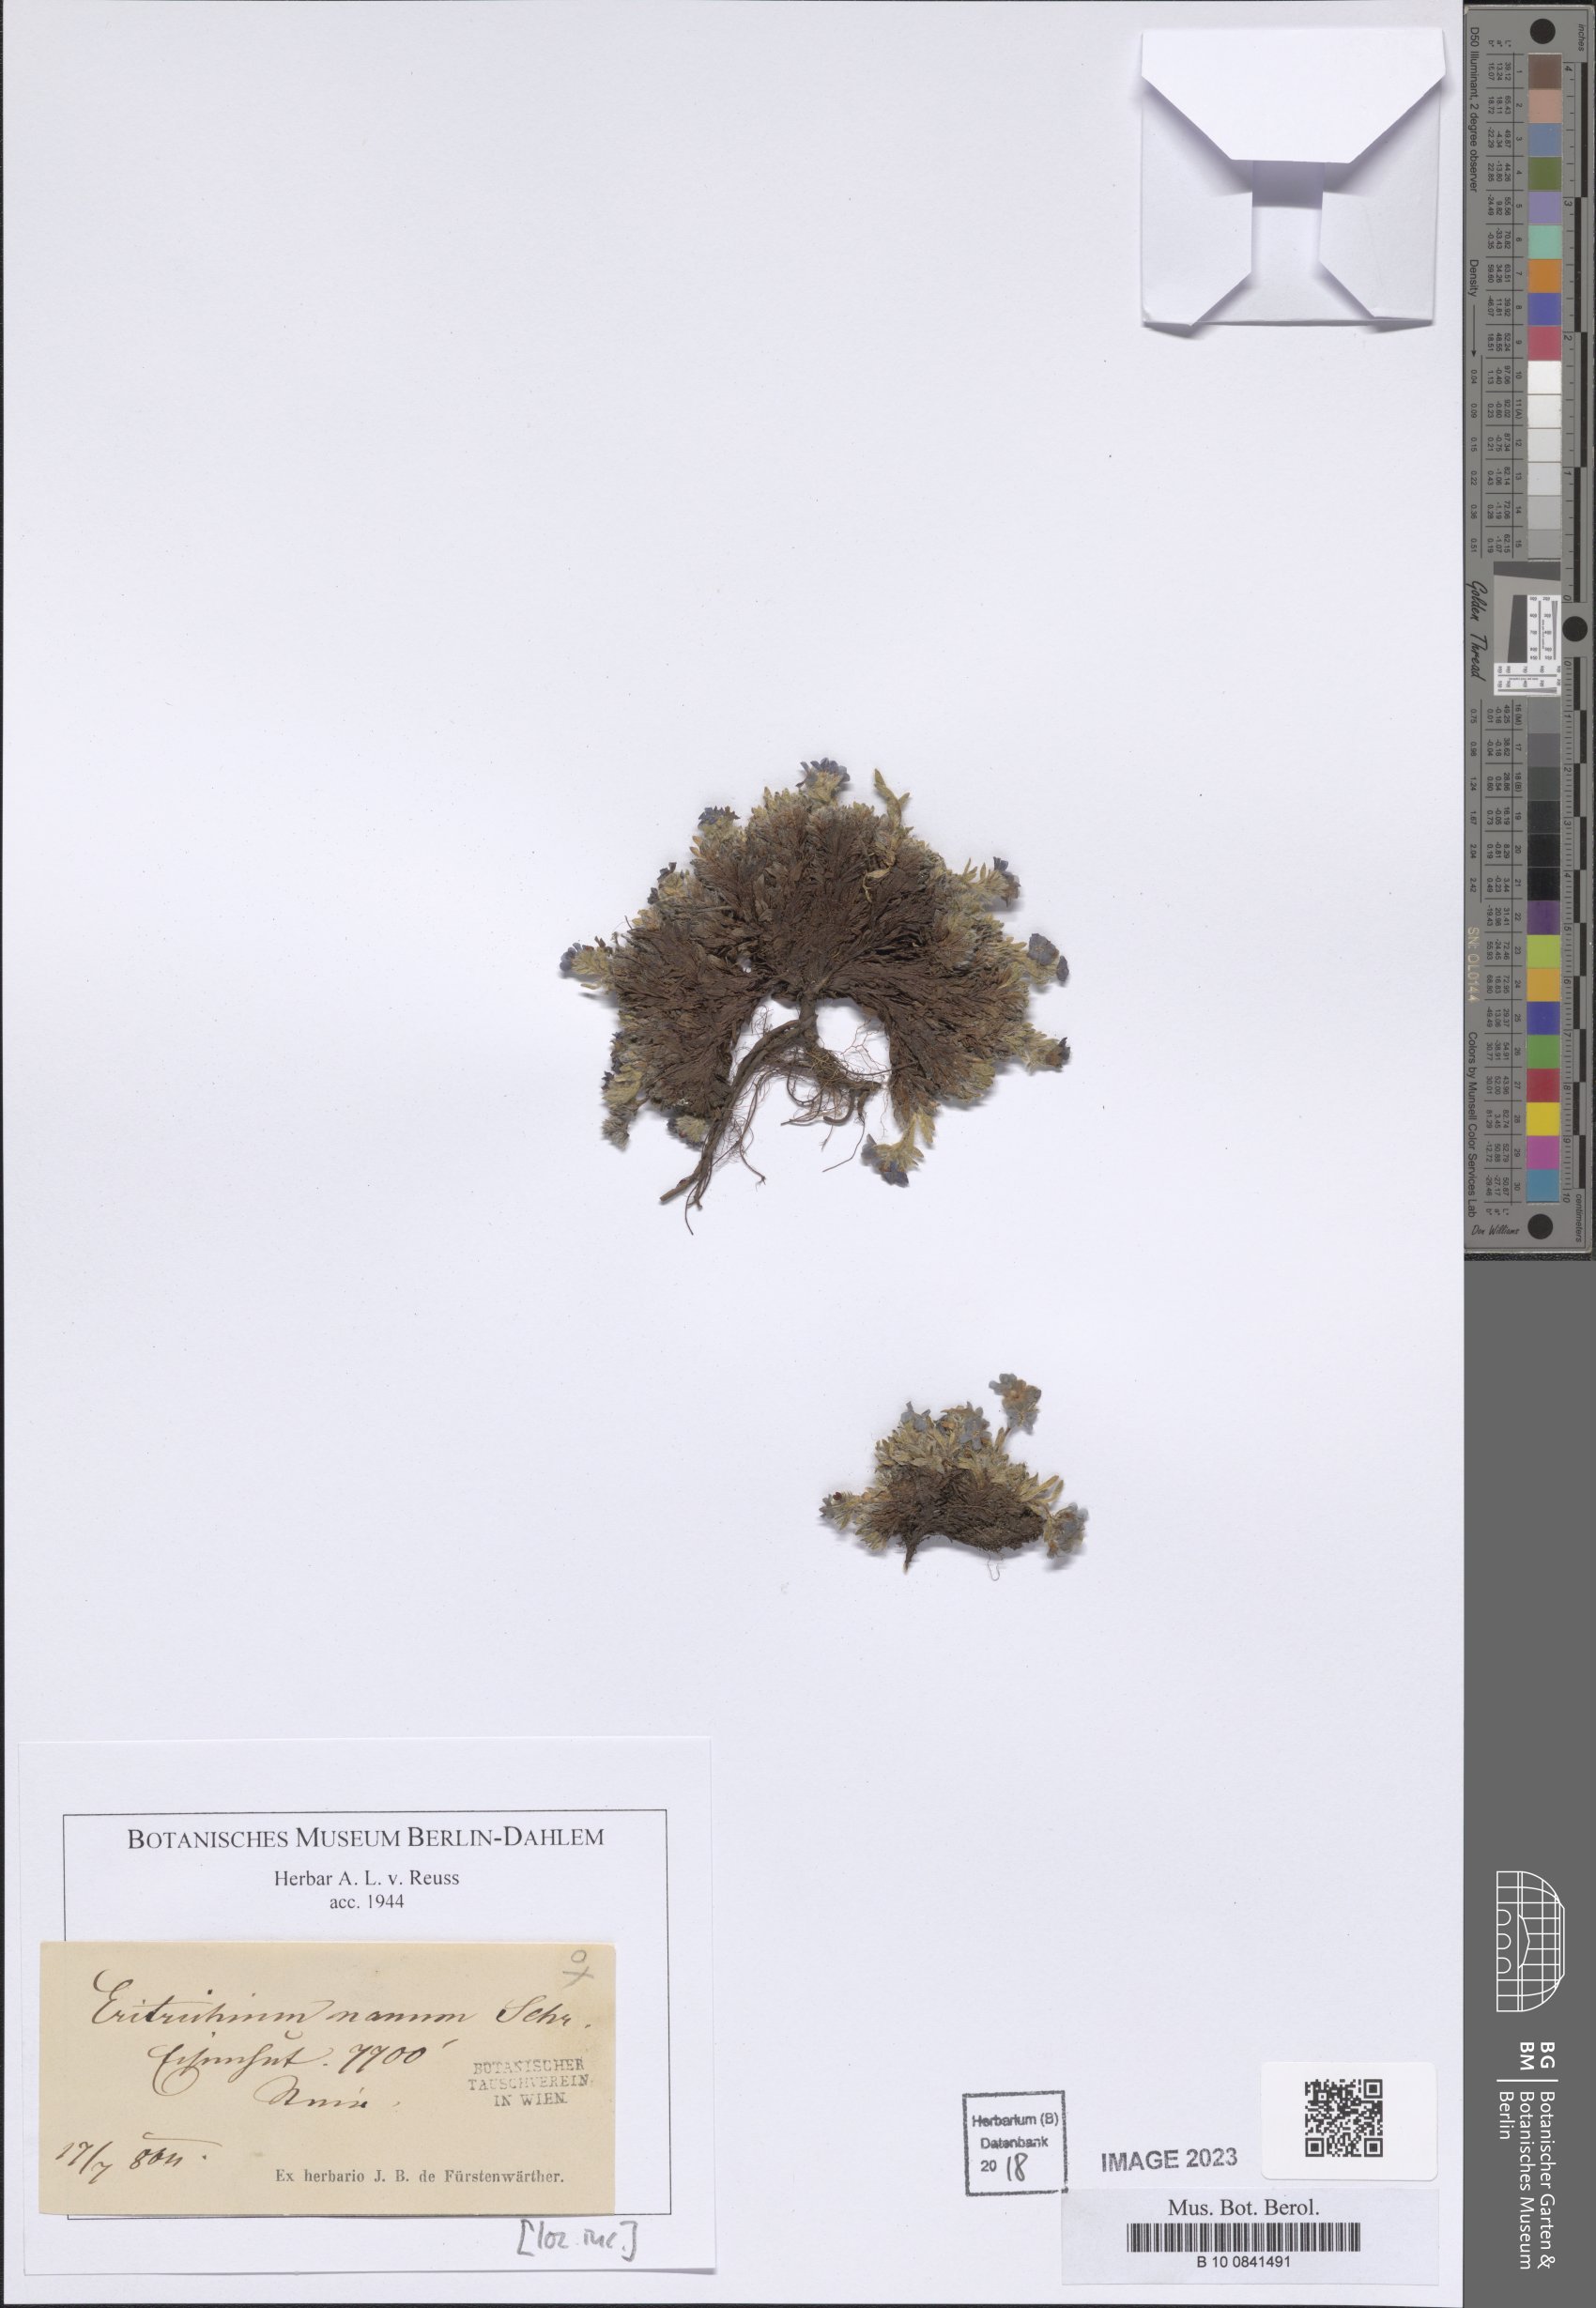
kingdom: Plantae
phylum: Tracheophyta
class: Magnoliopsida
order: Boraginales
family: Boraginaceae
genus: Eritrichium
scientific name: Eritrichium nanum
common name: King-of-the-alps
